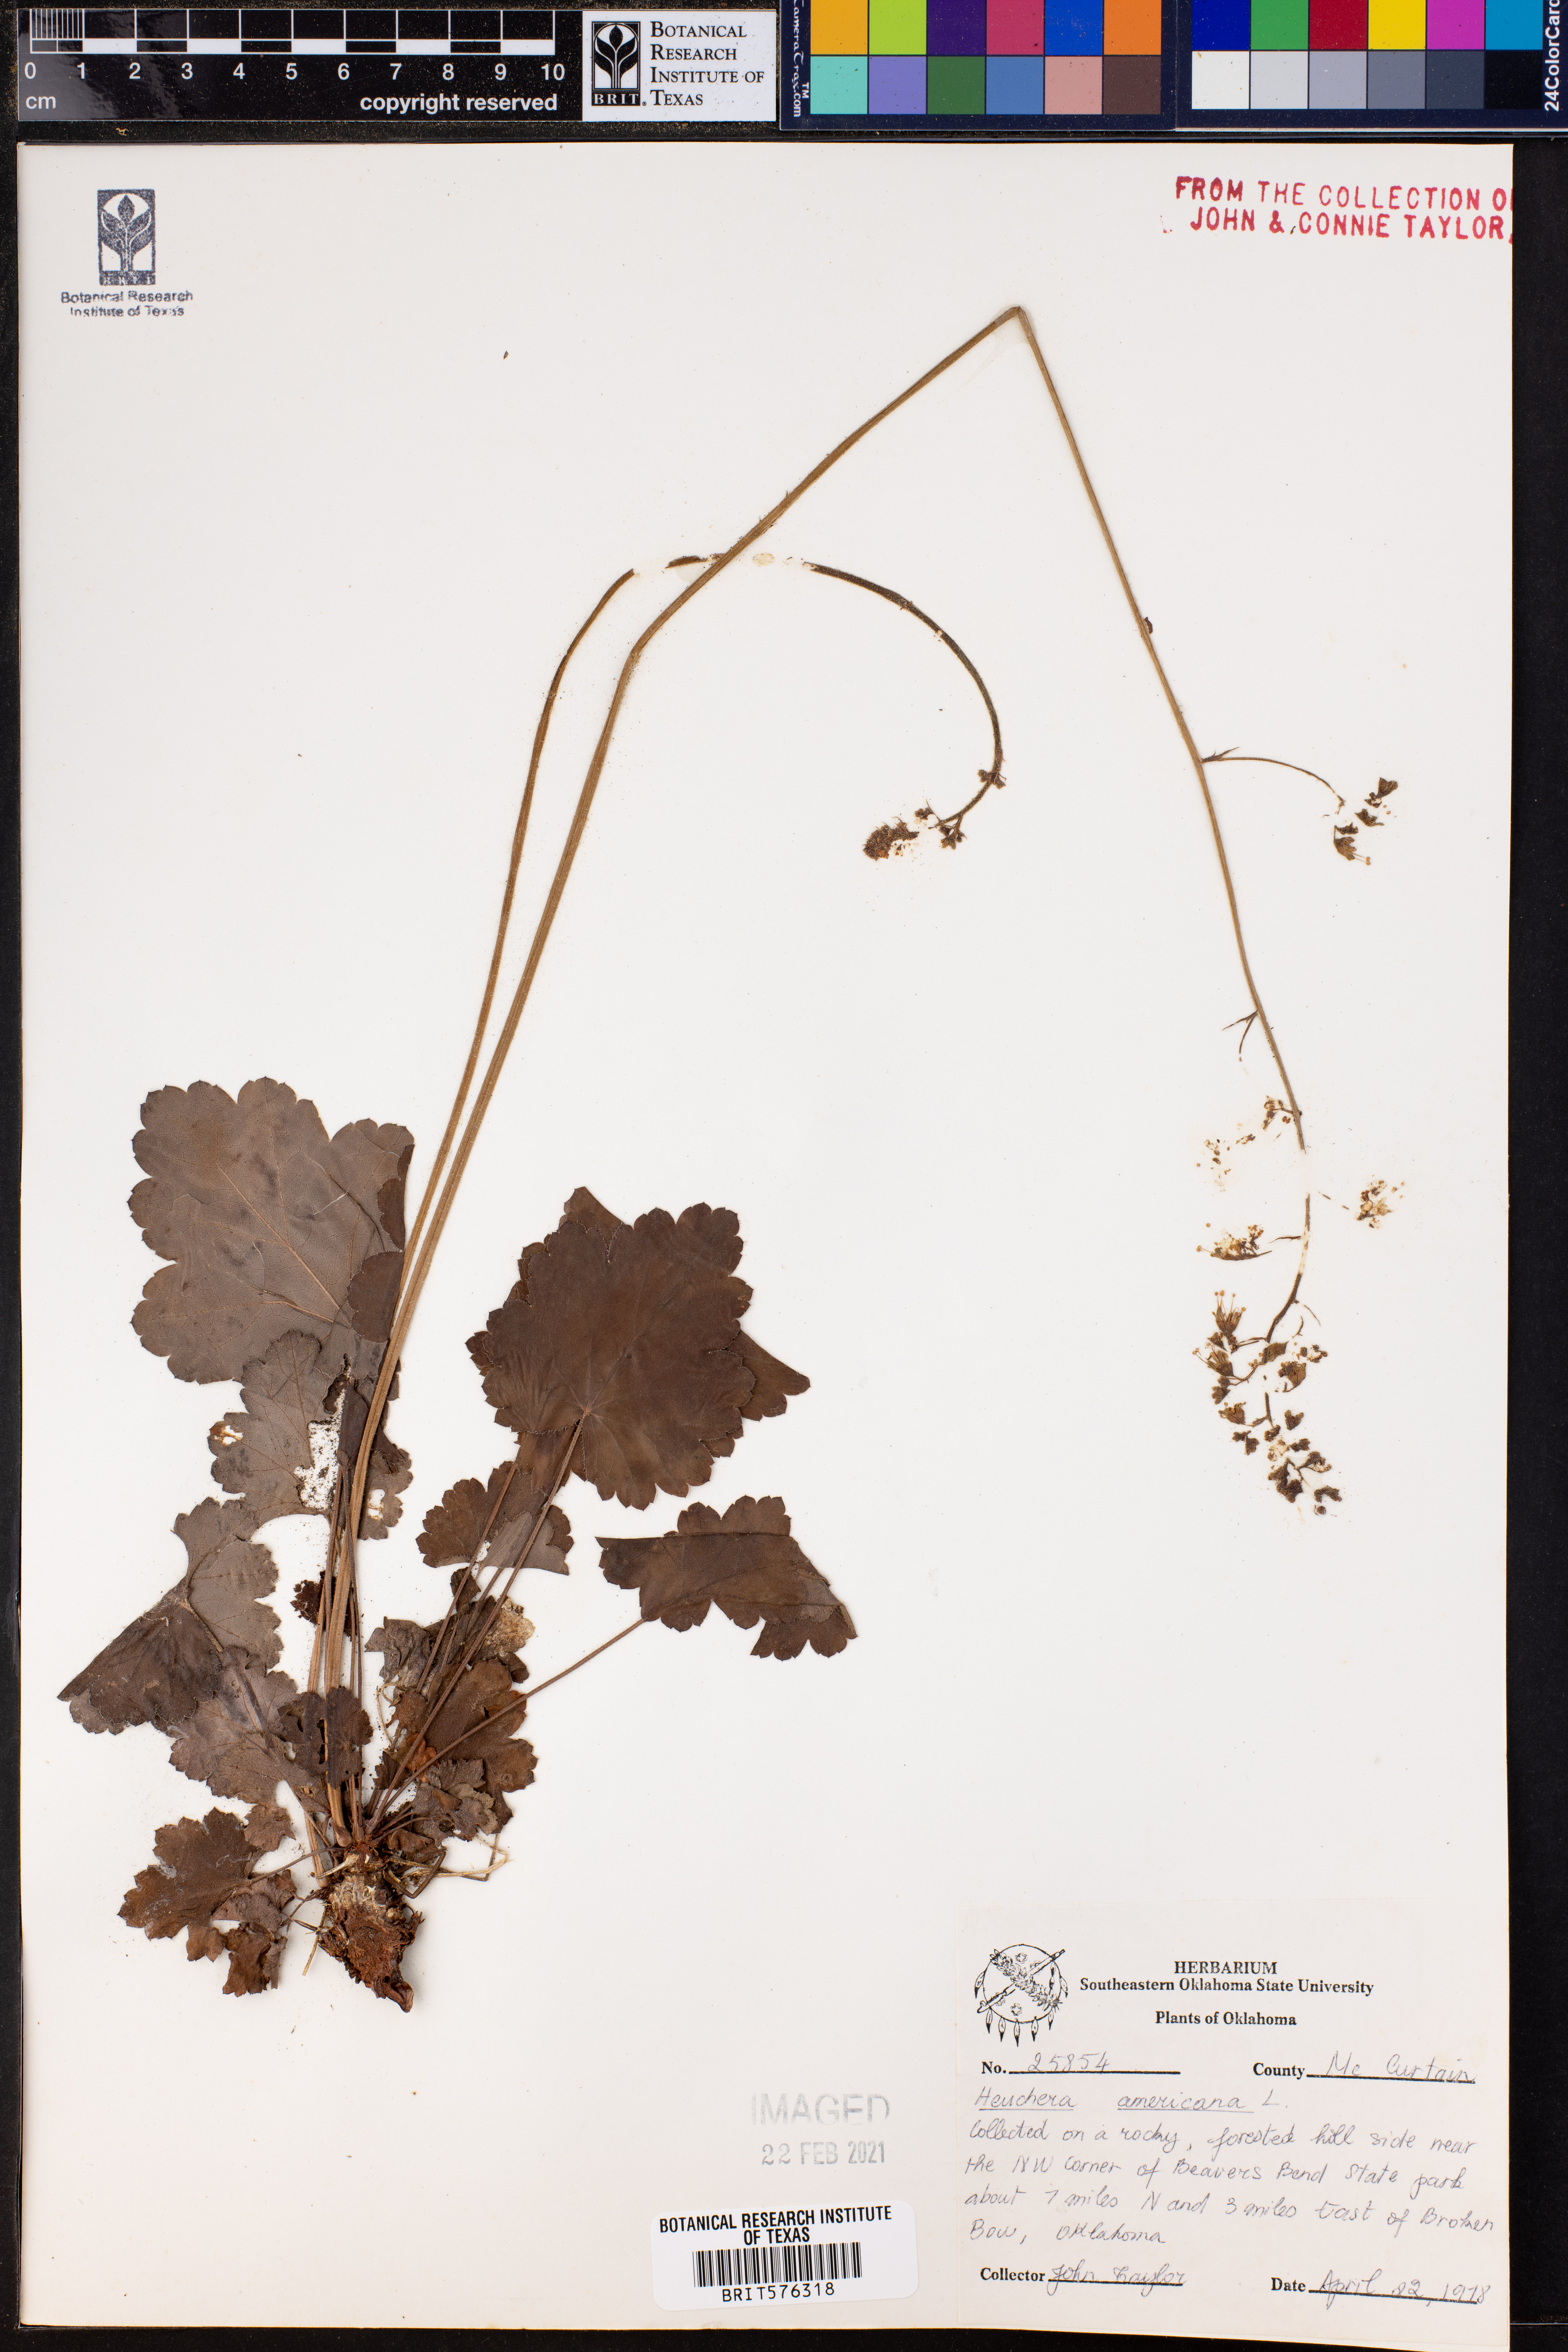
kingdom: Plantae
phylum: Tracheophyta
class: Magnoliopsida
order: Saxifragales
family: Saxifragaceae
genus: Heuchera
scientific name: Heuchera americana
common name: Alumroot
